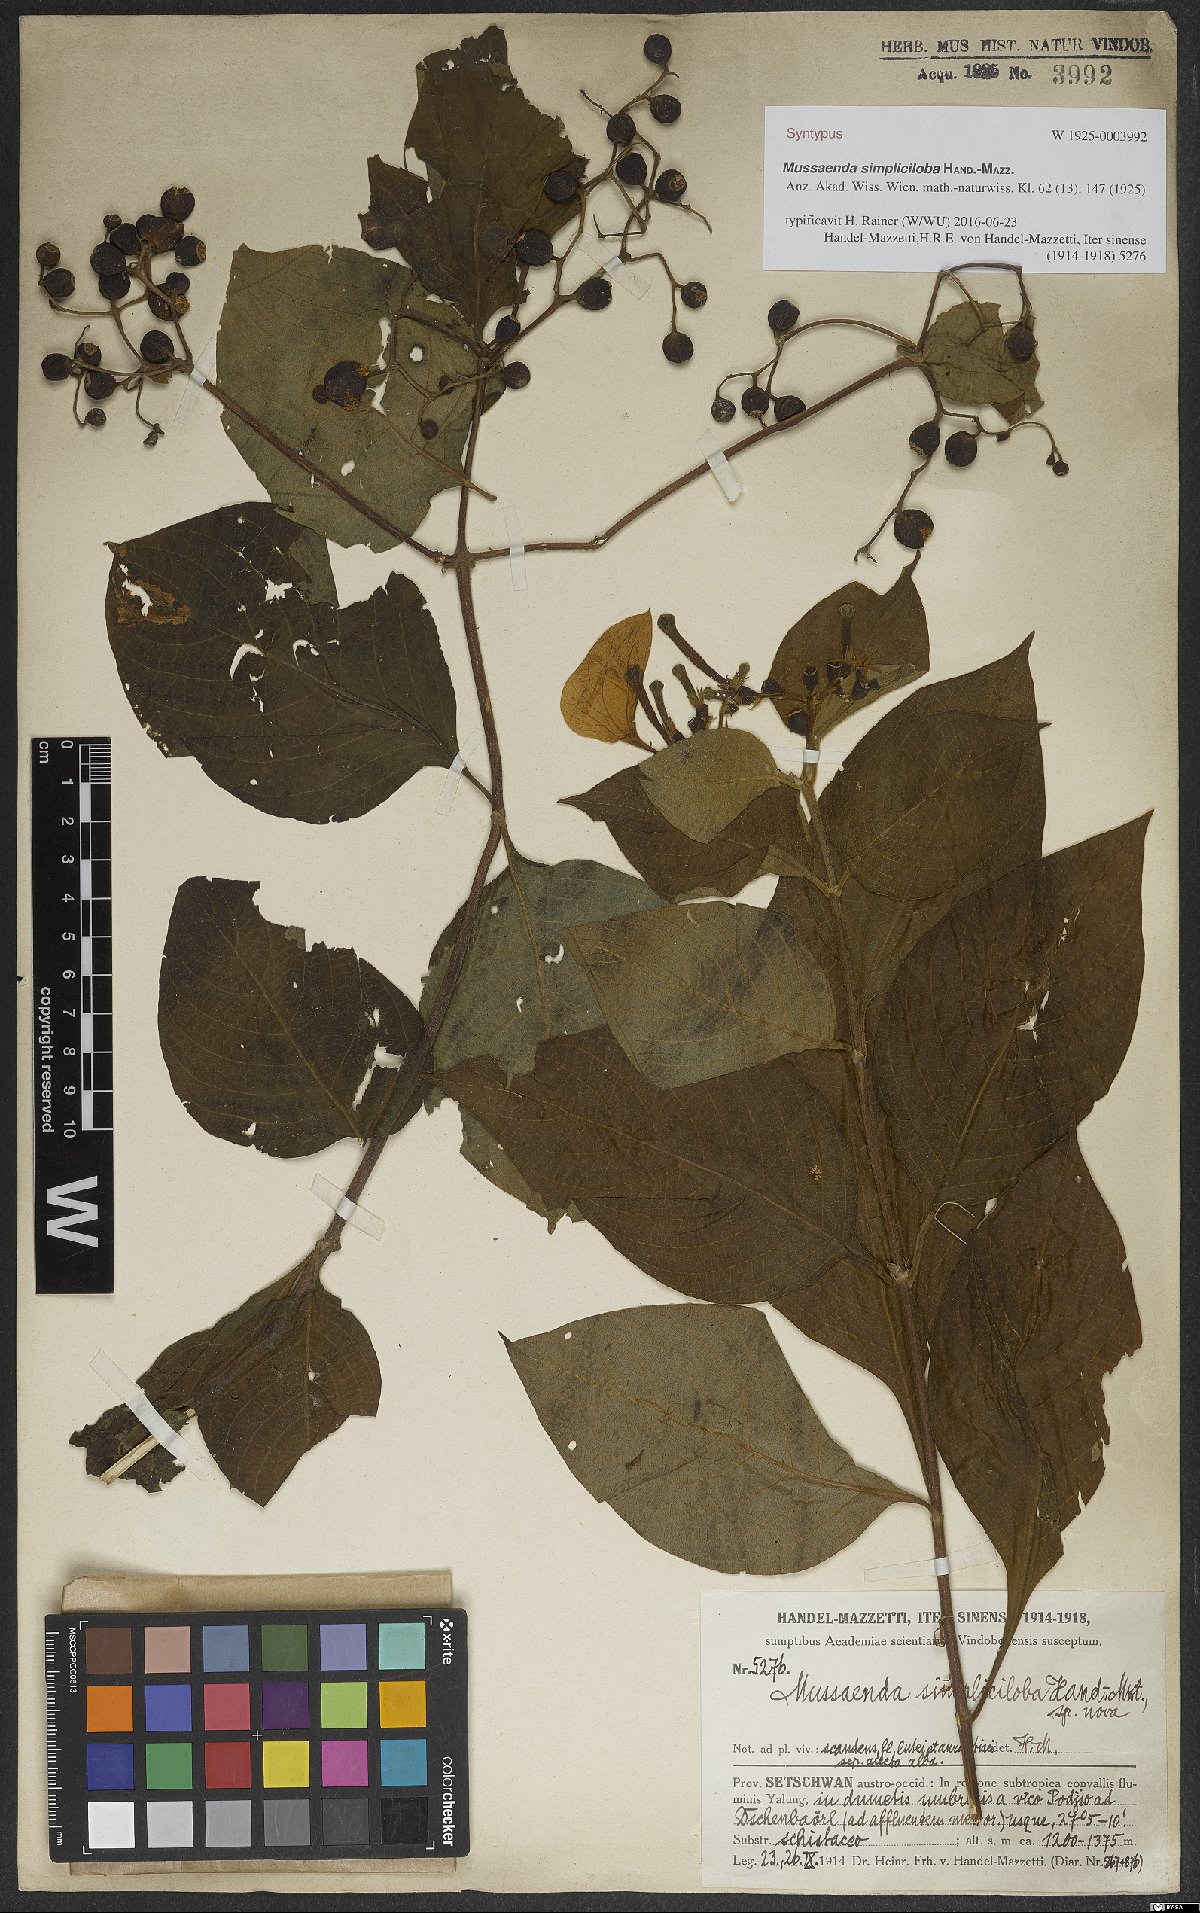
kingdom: Plantae
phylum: Tracheophyta
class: Magnoliopsida
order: Gentianales
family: Rubiaceae
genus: Mussaenda
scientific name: Mussaenda simpliciloba
